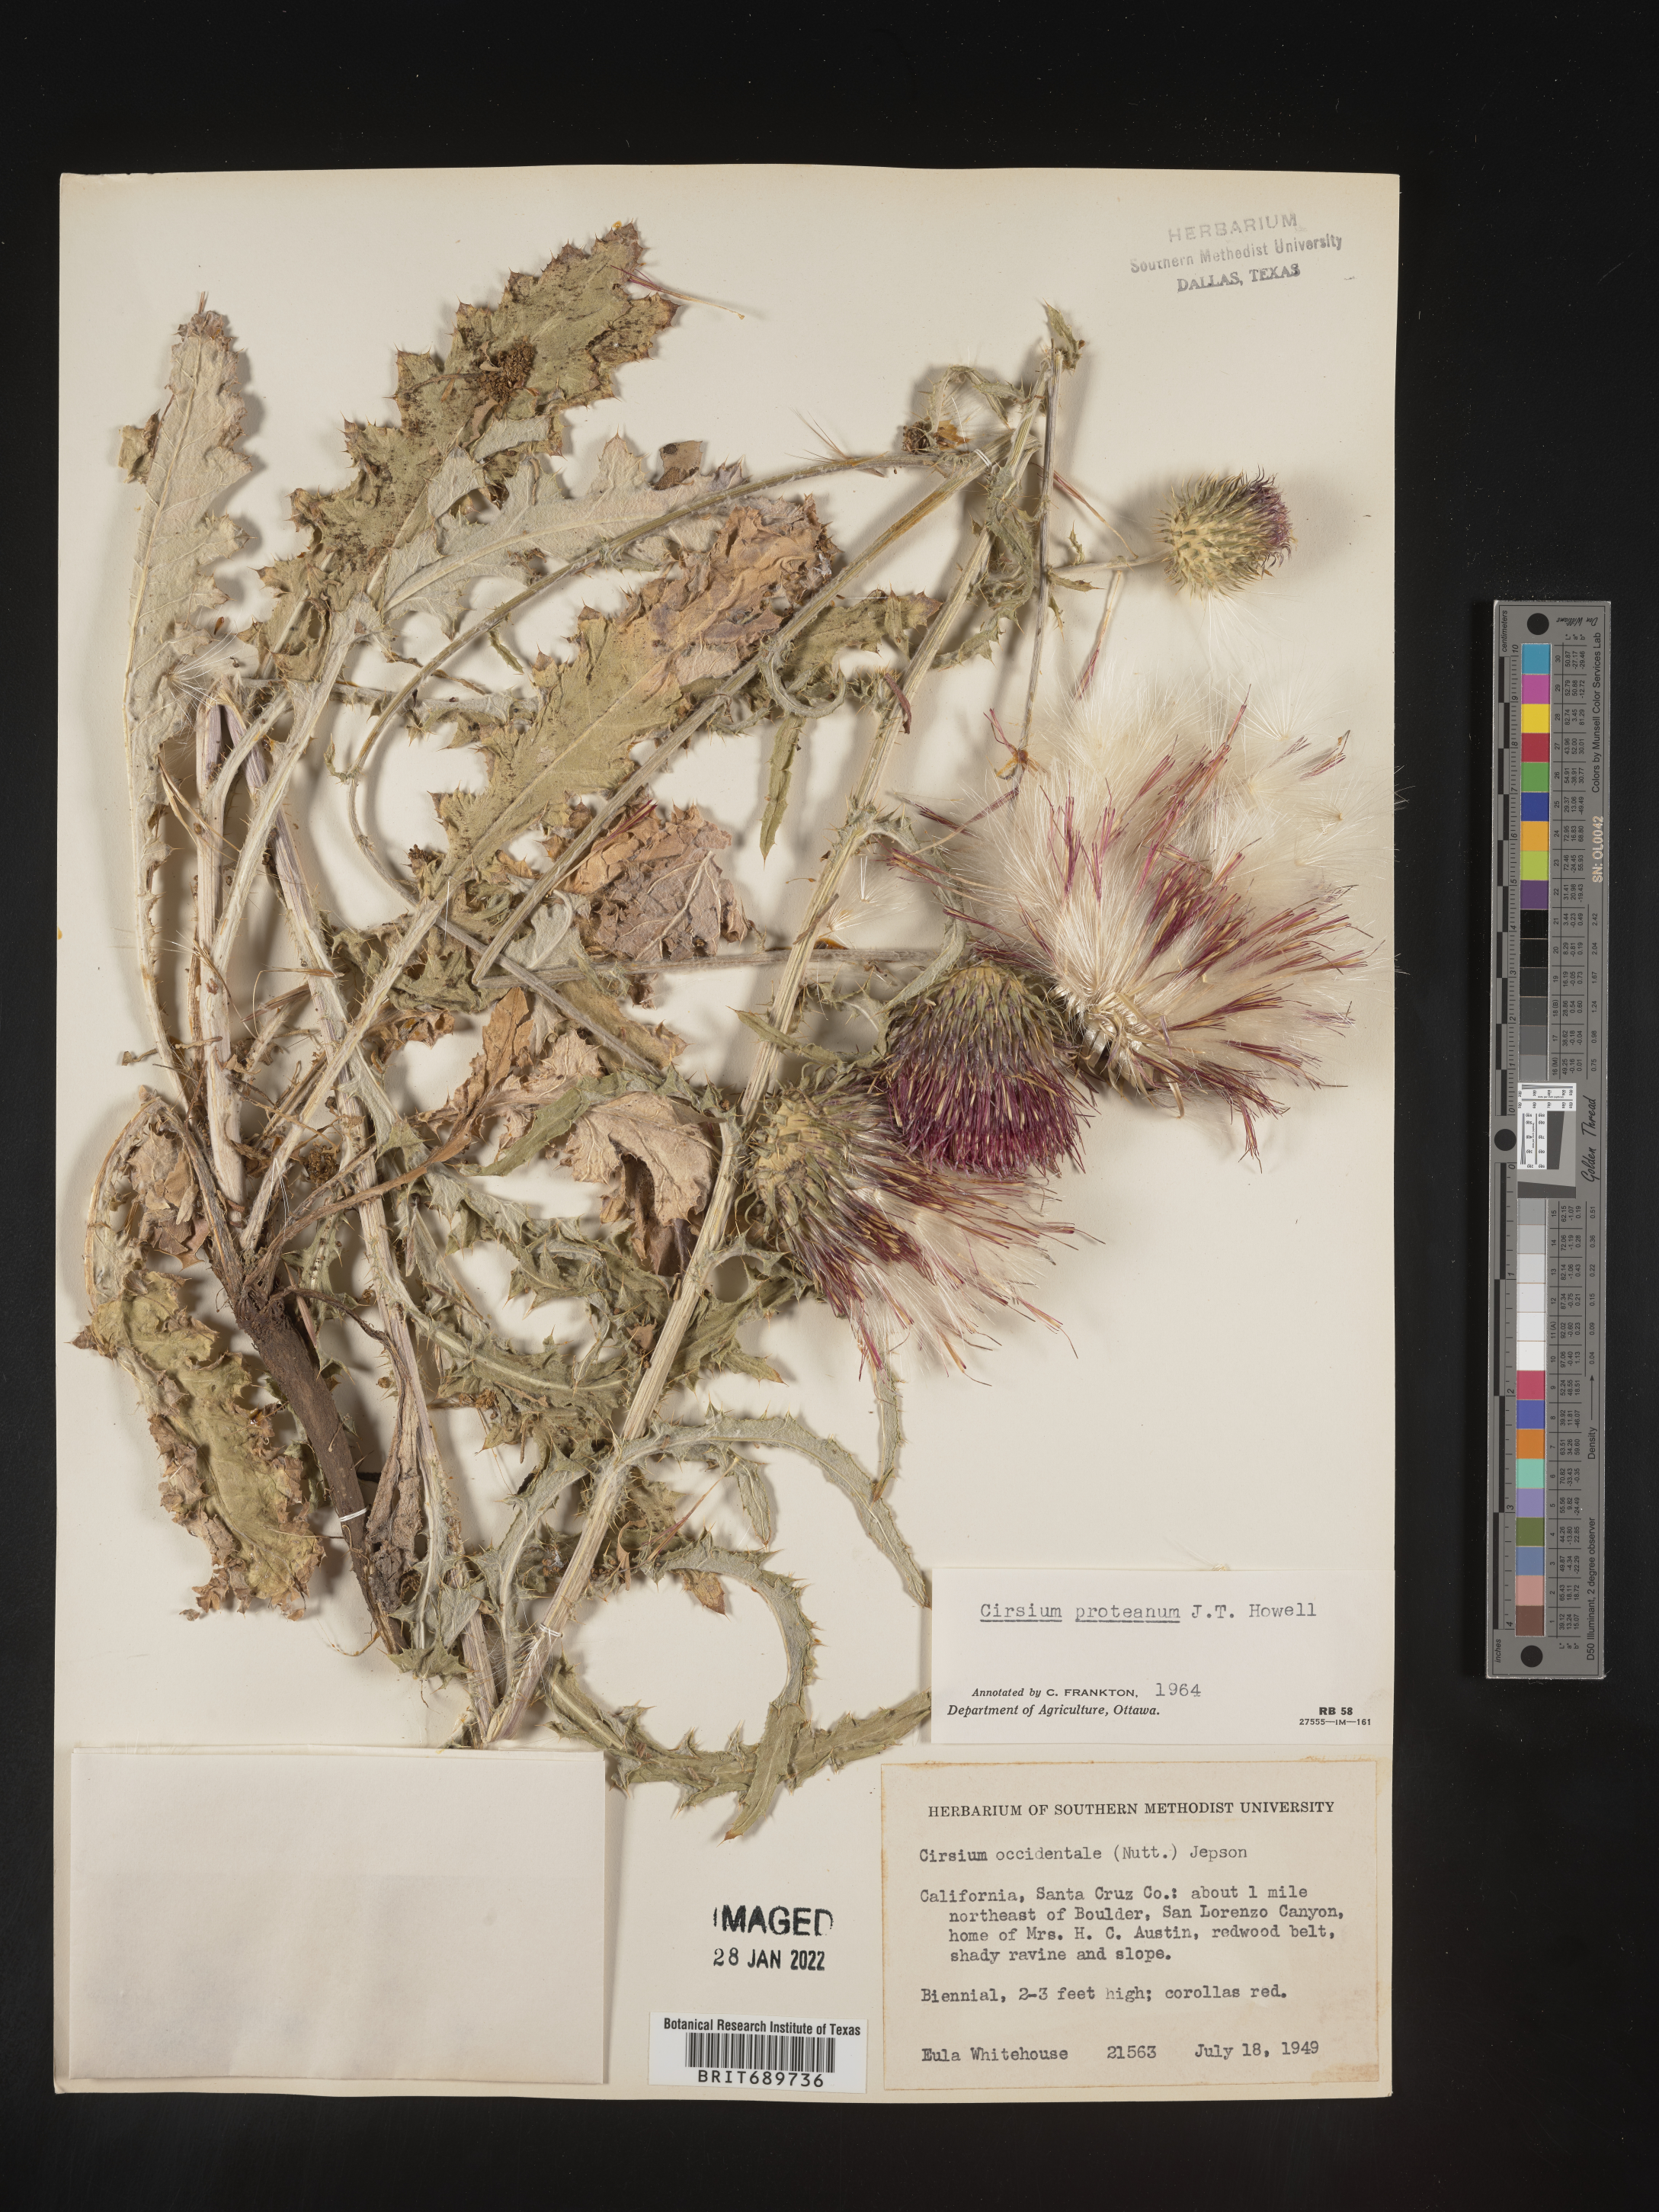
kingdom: Plantae
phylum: Tracheophyta
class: Magnoliopsida
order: Asterales
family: Asteraceae
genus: Cirsium
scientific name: Cirsium occidentale
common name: Western thistle
